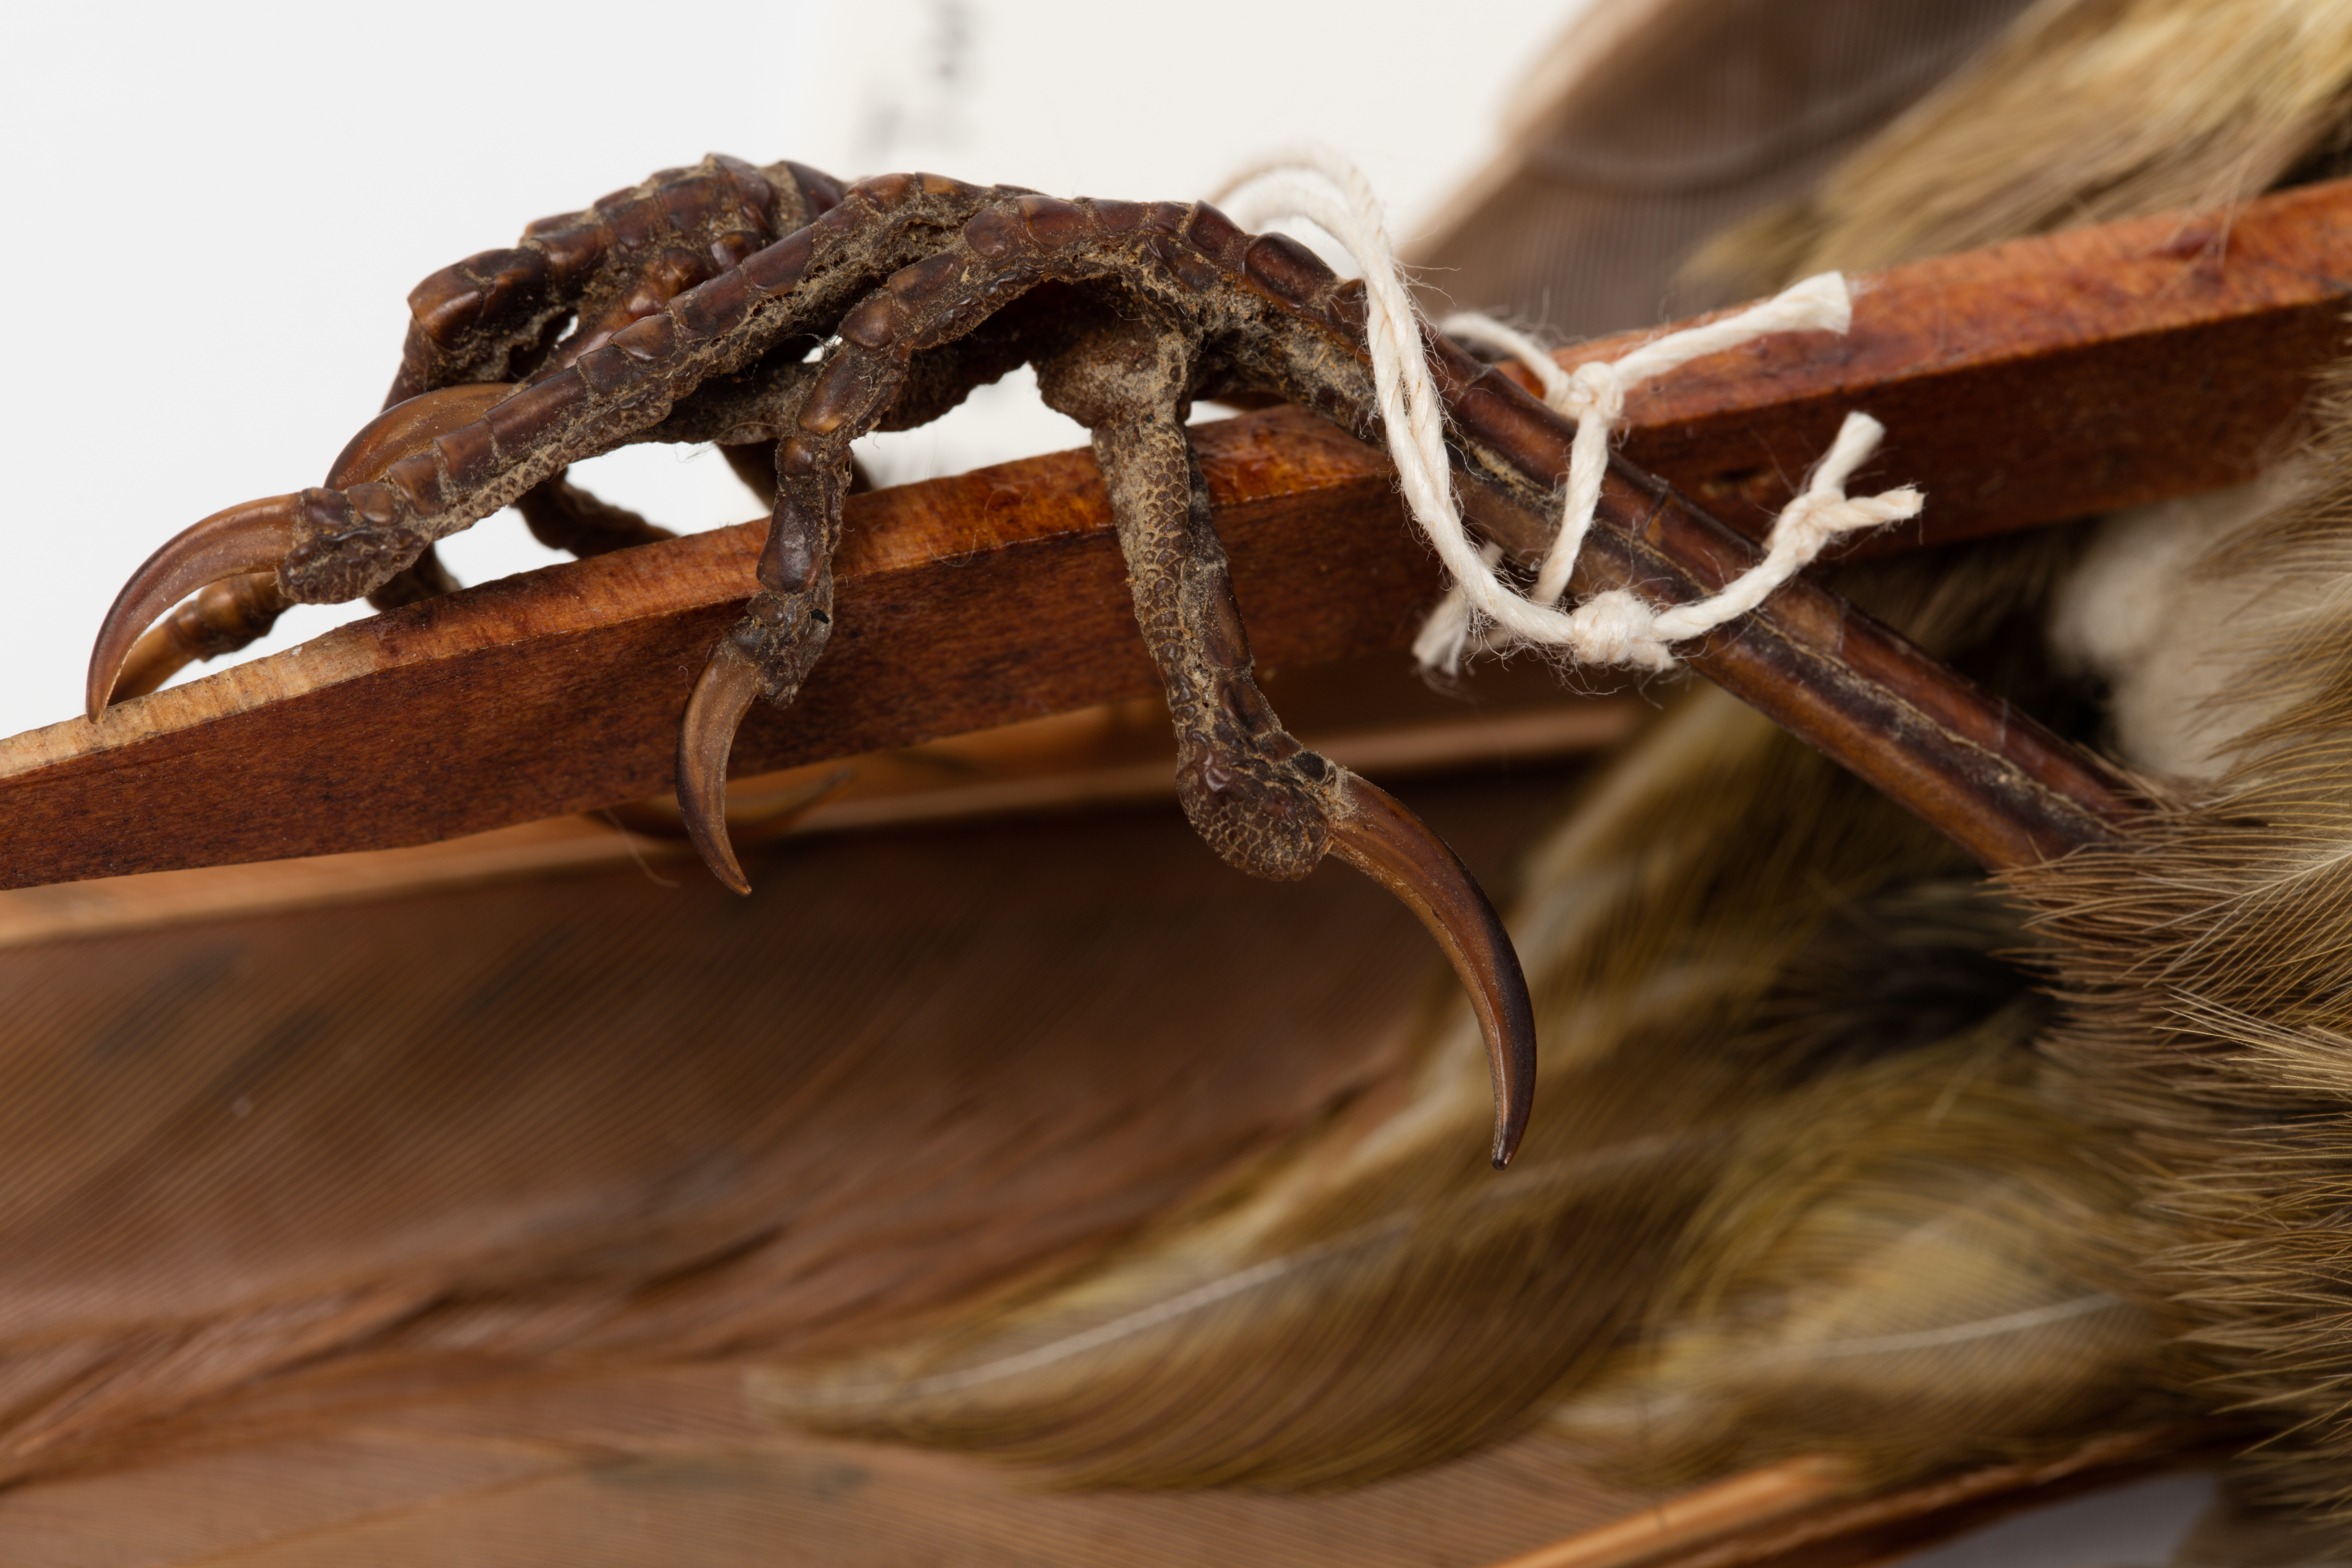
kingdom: Animalia
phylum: Chordata
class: Aves
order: Passeriformes
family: Ptilonorhynchidae
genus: Turnagra
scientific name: Turnagra capensis
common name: South island piopio
